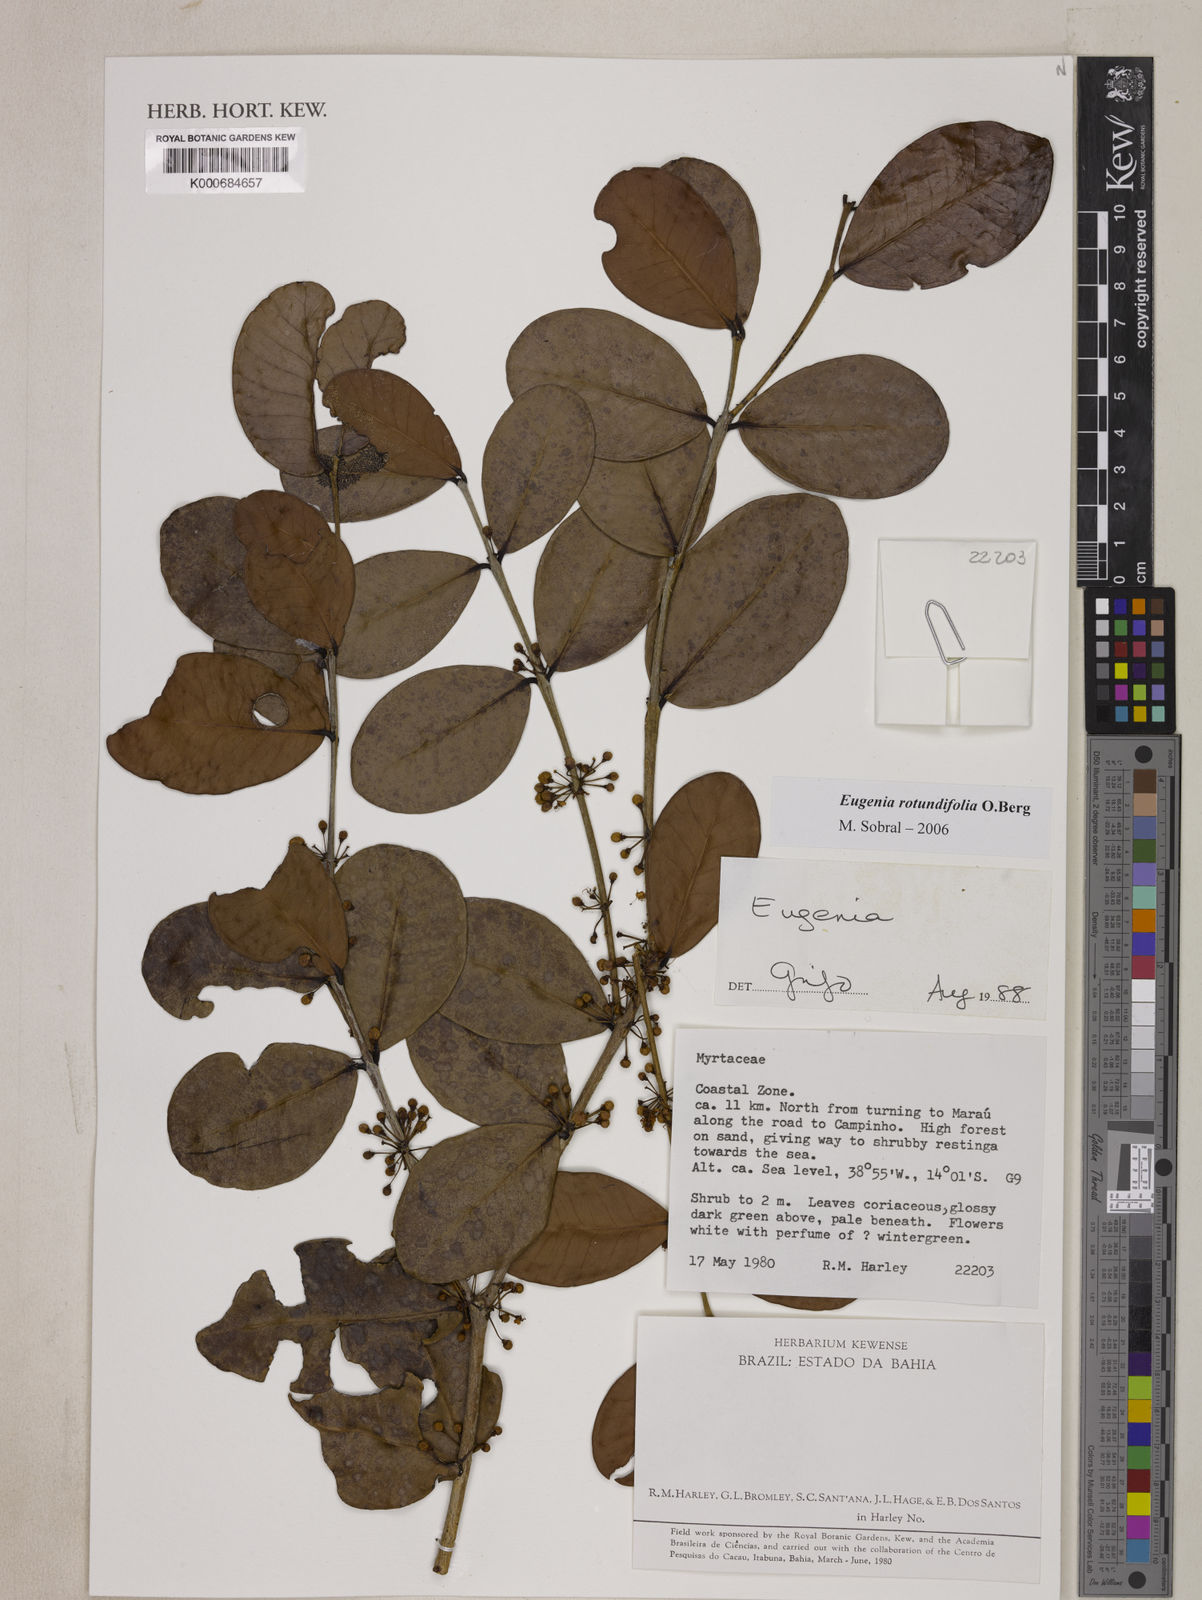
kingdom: Plantae
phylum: Tracheophyta
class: Magnoliopsida
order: Myrtales
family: Myrtaceae
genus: Eugenia
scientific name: Eugenia umbelliflora
